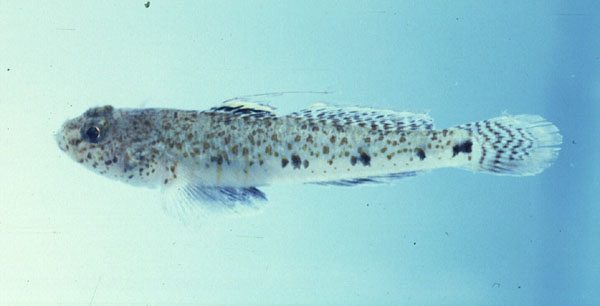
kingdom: Animalia
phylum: Chordata
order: Perciformes
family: Gobiidae
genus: Favonigobius
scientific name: Favonigobius reichei
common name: Tropical sand goby
